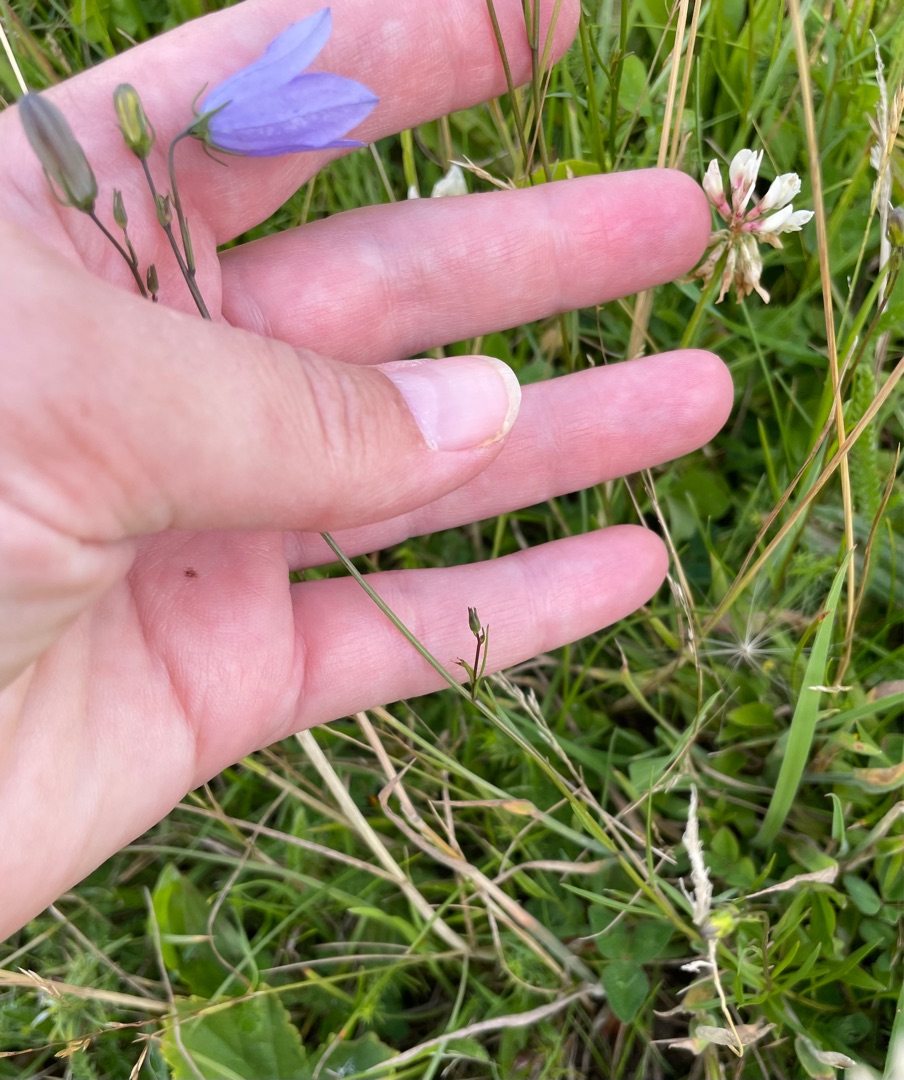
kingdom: Plantae
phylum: Tracheophyta
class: Magnoliopsida
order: Asterales
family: Campanulaceae
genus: Campanula
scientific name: Campanula rotundifolia
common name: Liden klokke
